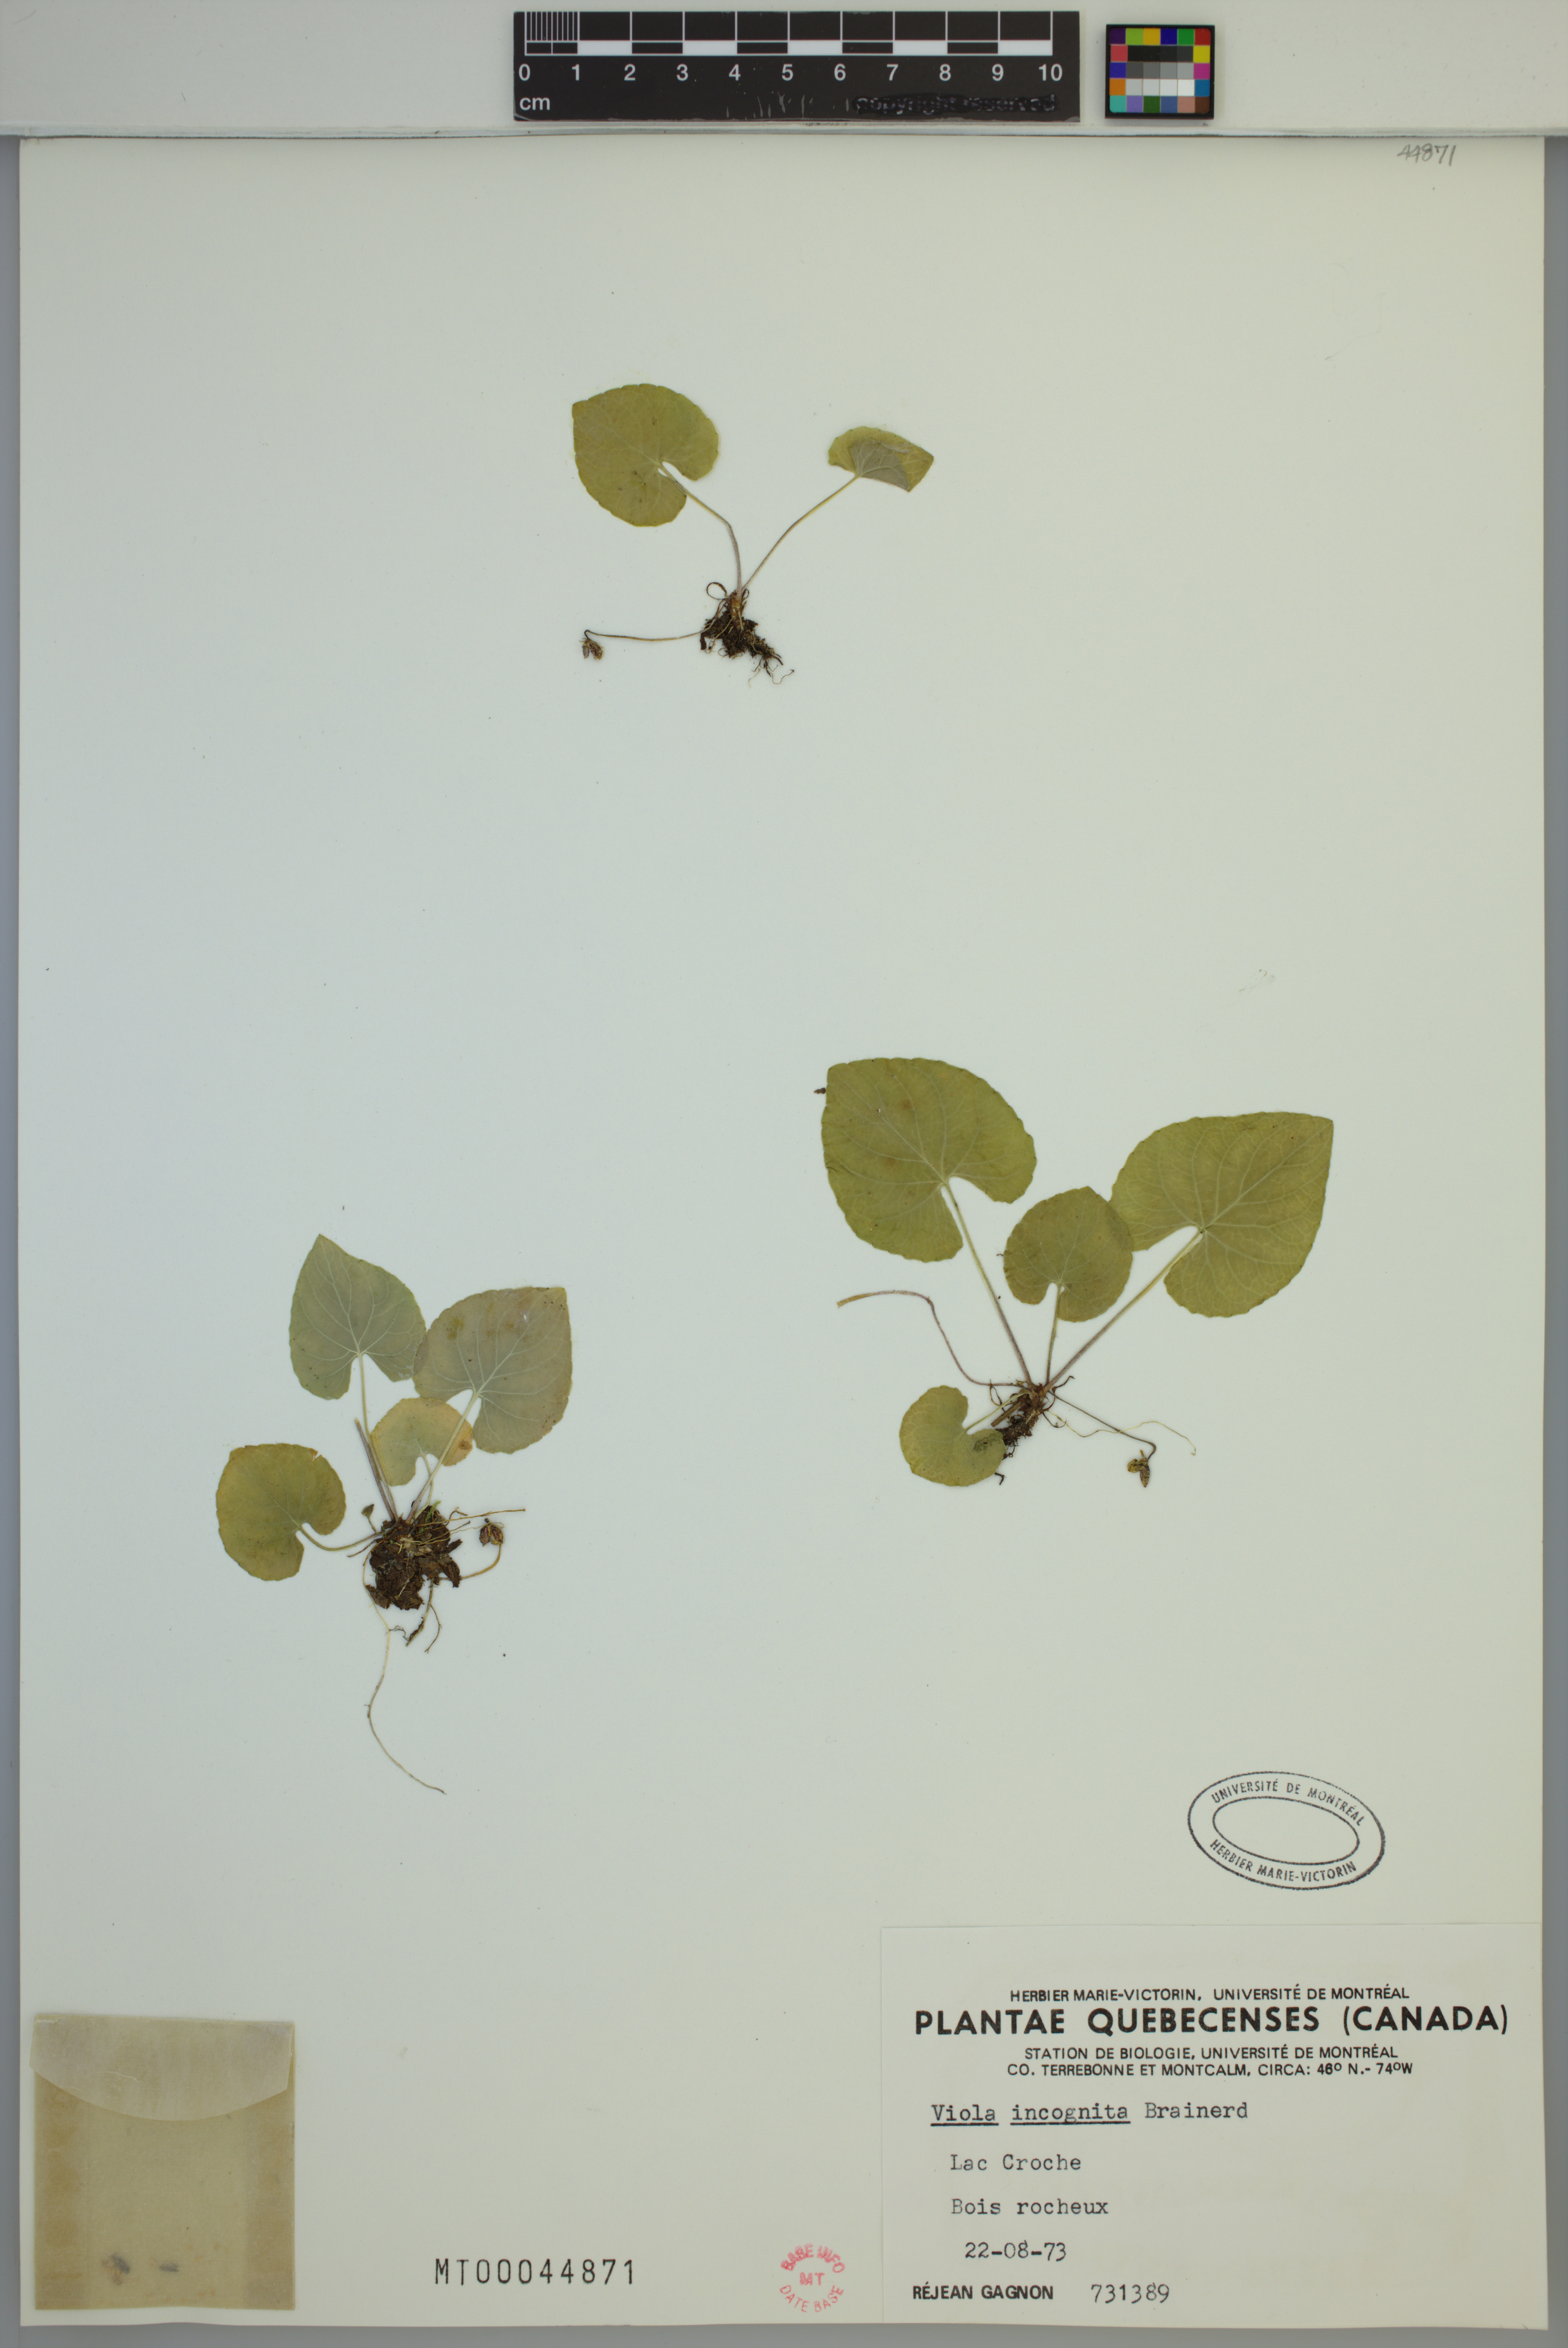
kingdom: Plantae
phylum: Tracheophyta
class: Magnoliopsida
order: Malpighiales
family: Violaceae
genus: Viola
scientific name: Viola blanda
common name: Sweet white violet
